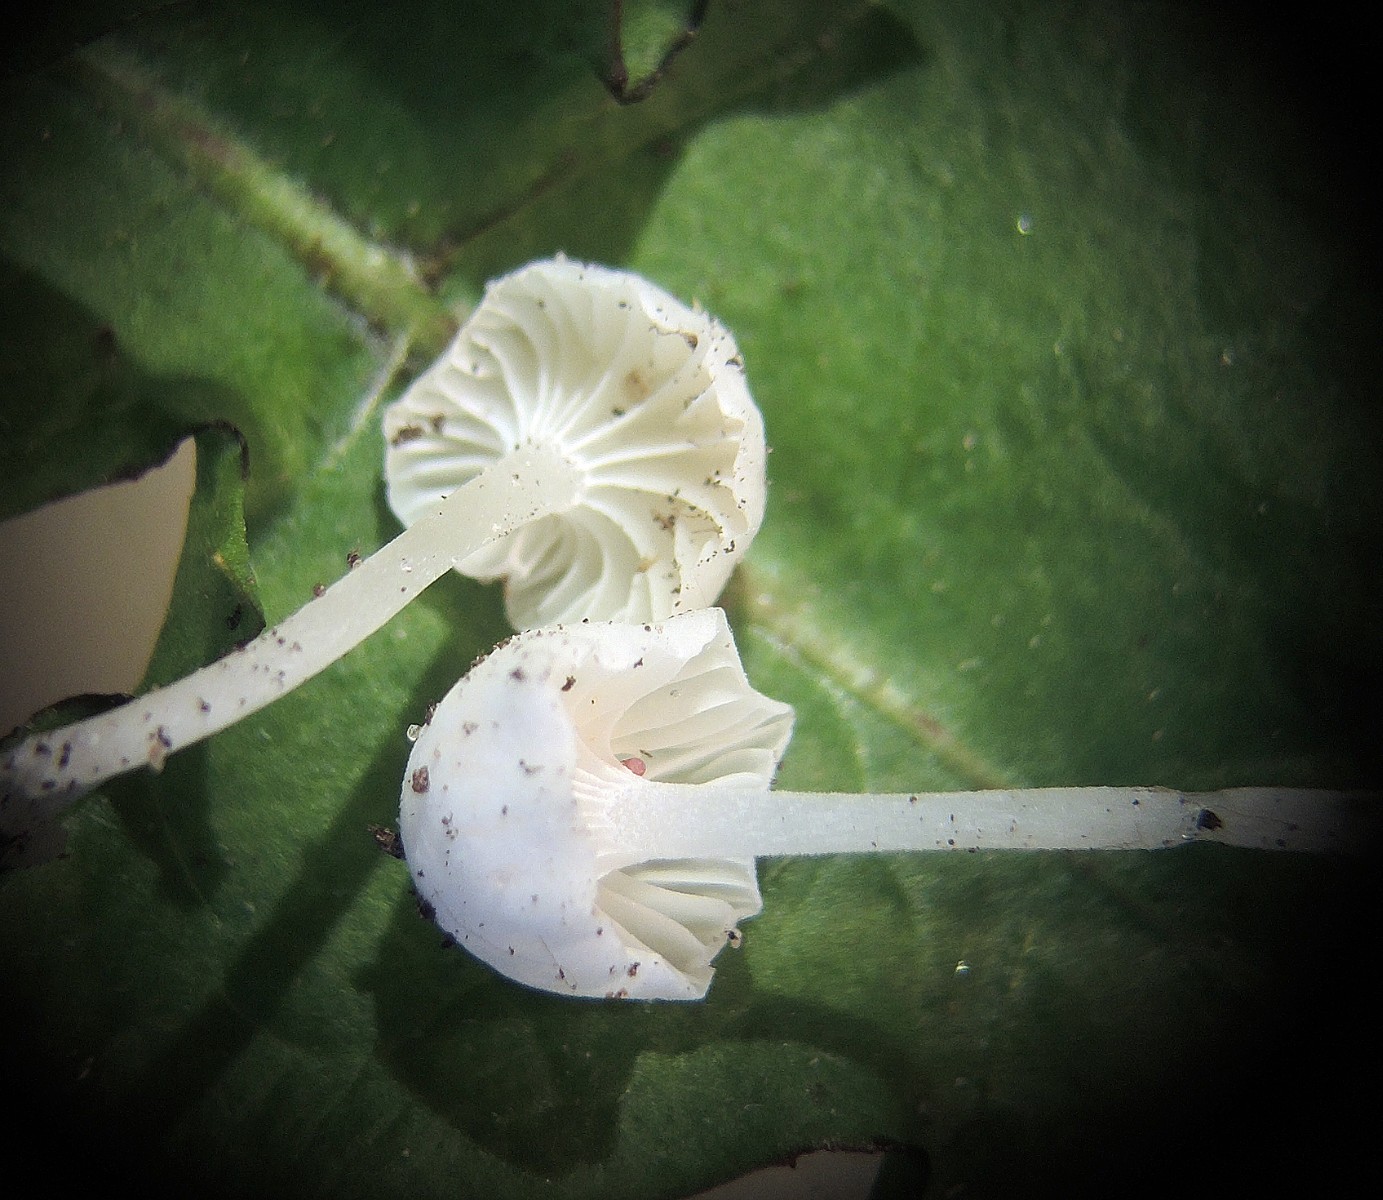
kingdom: Fungi
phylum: Basidiomycota
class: Agaricomycetes
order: Agaricales
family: Mycenaceae
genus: Hemimycena
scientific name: Hemimycena
